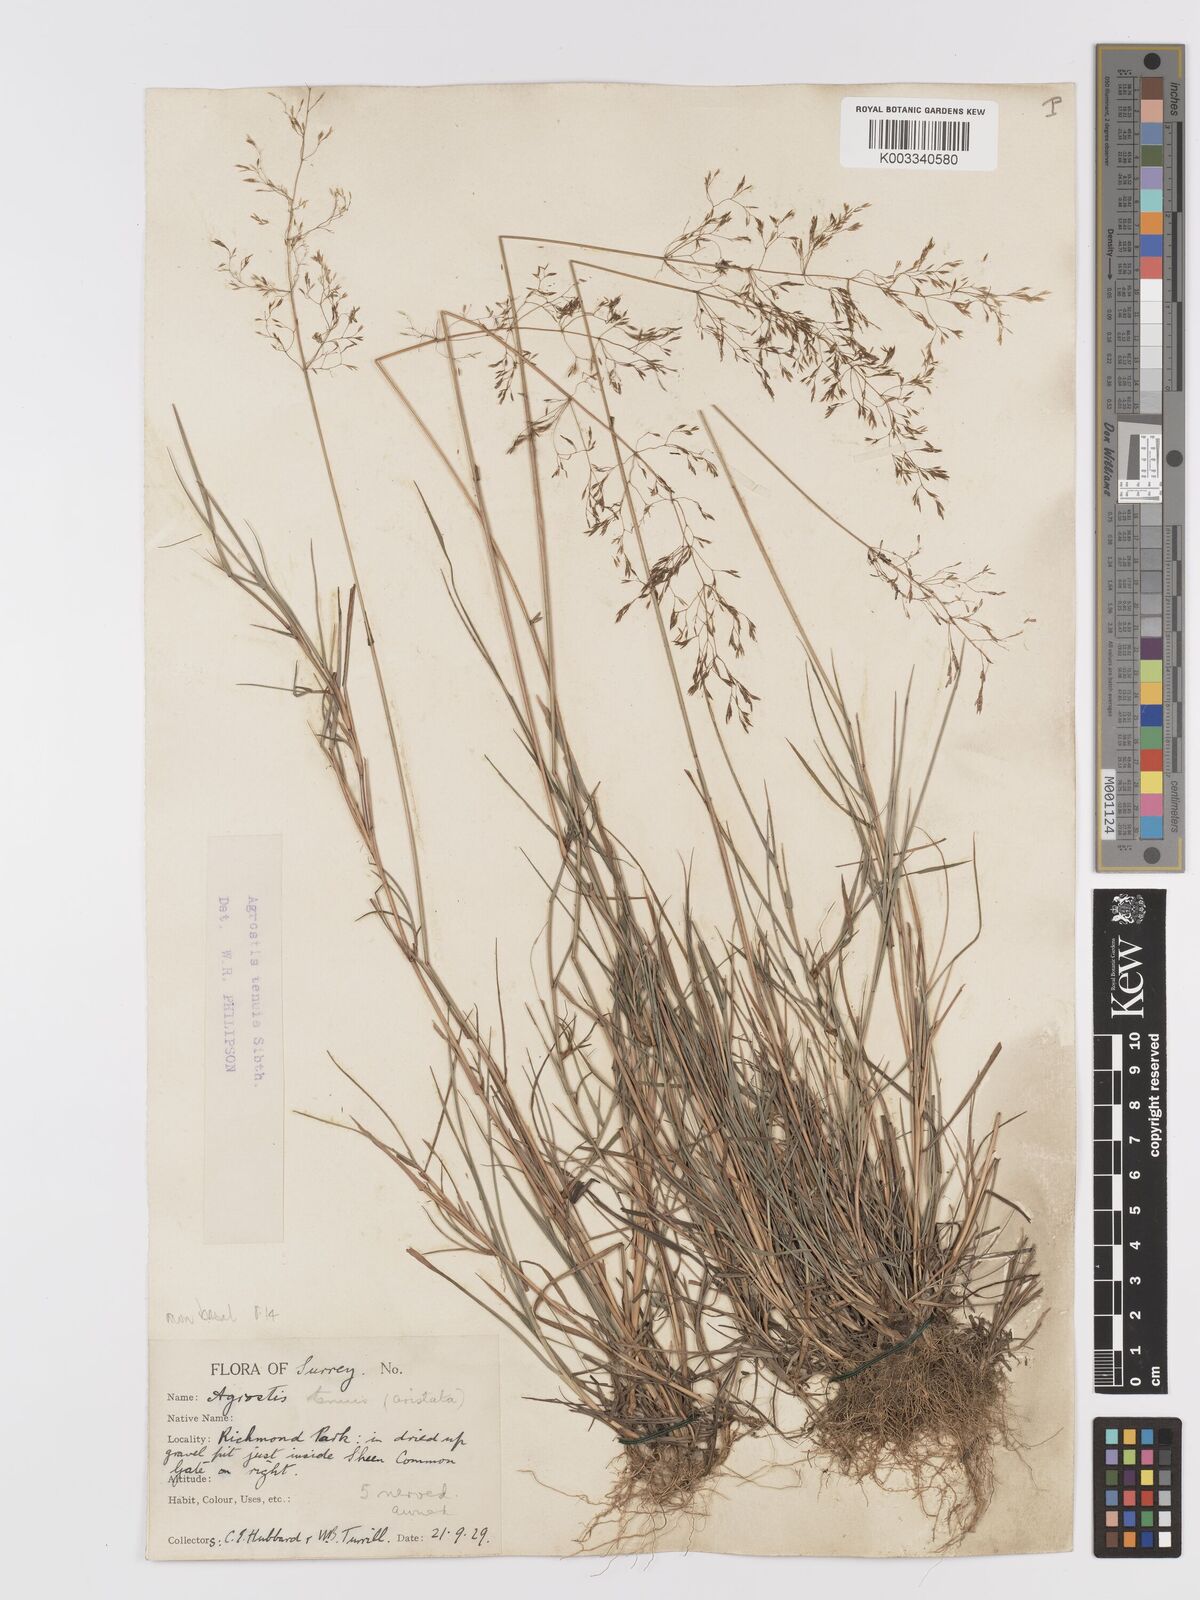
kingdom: Plantae
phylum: Tracheophyta
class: Liliopsida
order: Poales
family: Poaceae
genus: Agrostis
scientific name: Agrostis capillaris
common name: Colonial bentgrass
